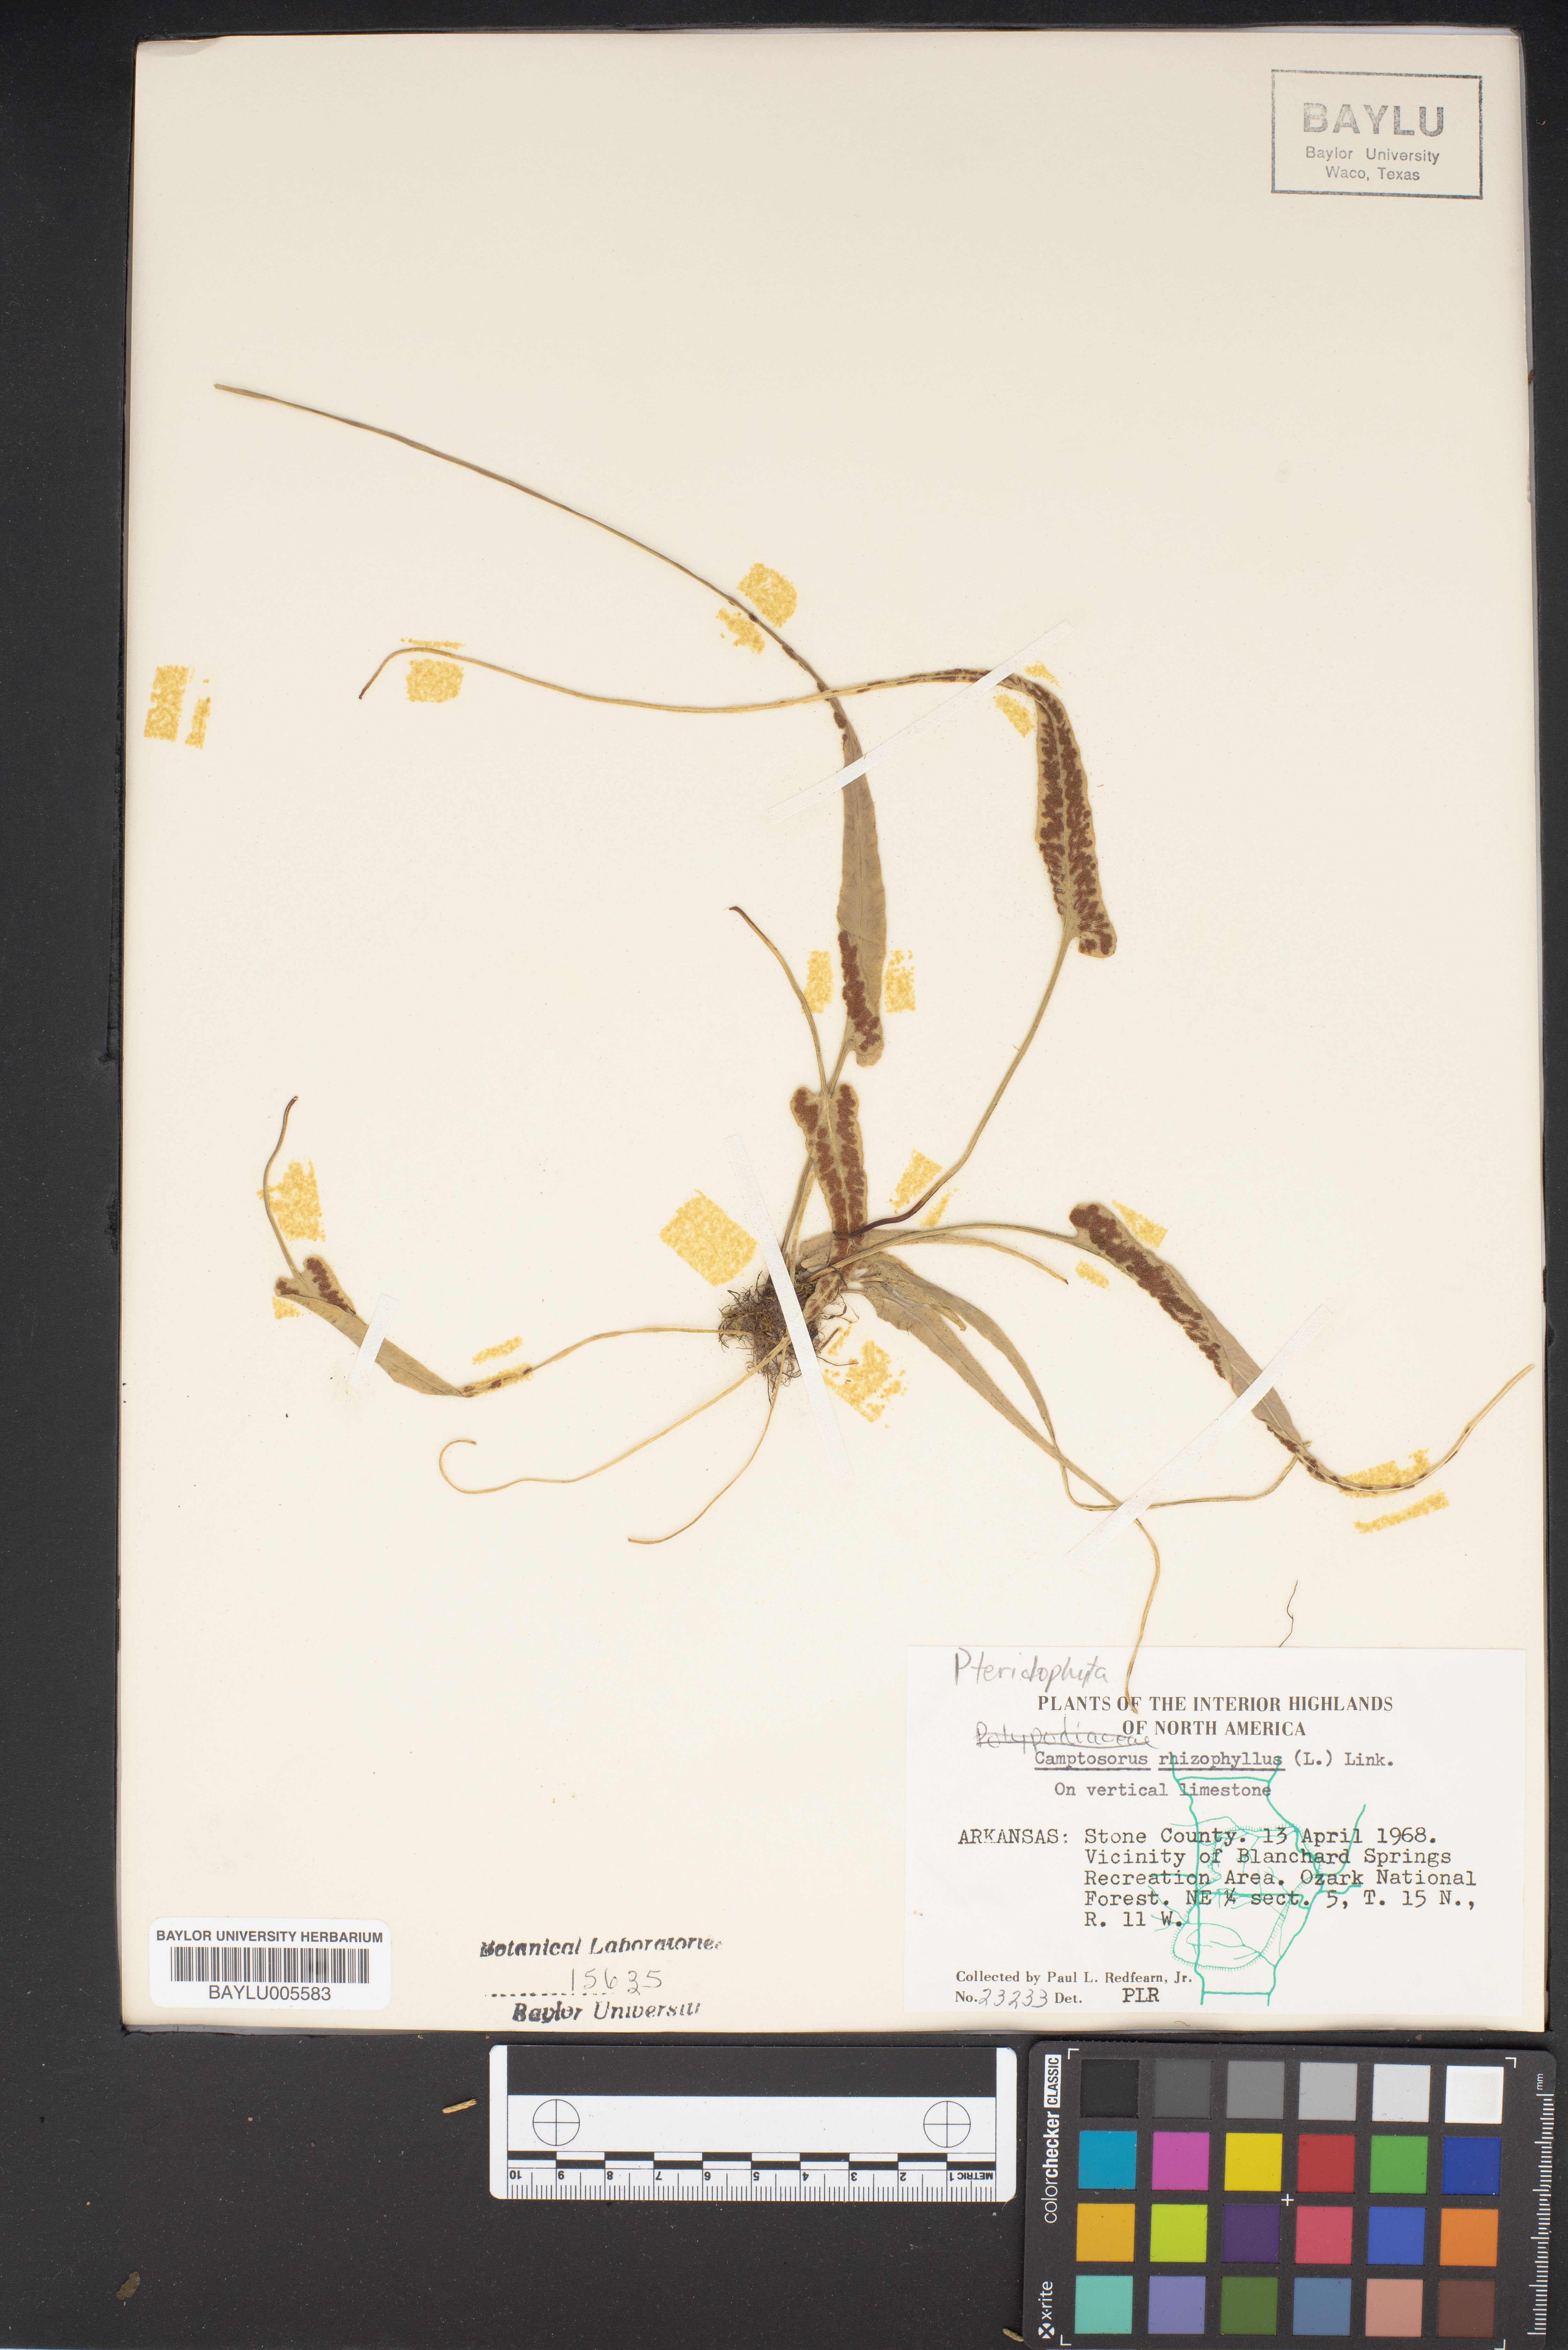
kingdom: Plantae
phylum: Tracheophyta
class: Polypodiopsida
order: Polypodiales
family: Aspleniaceae
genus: Asplenium
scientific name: Asplenium rhizophyllum
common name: Walking fern
